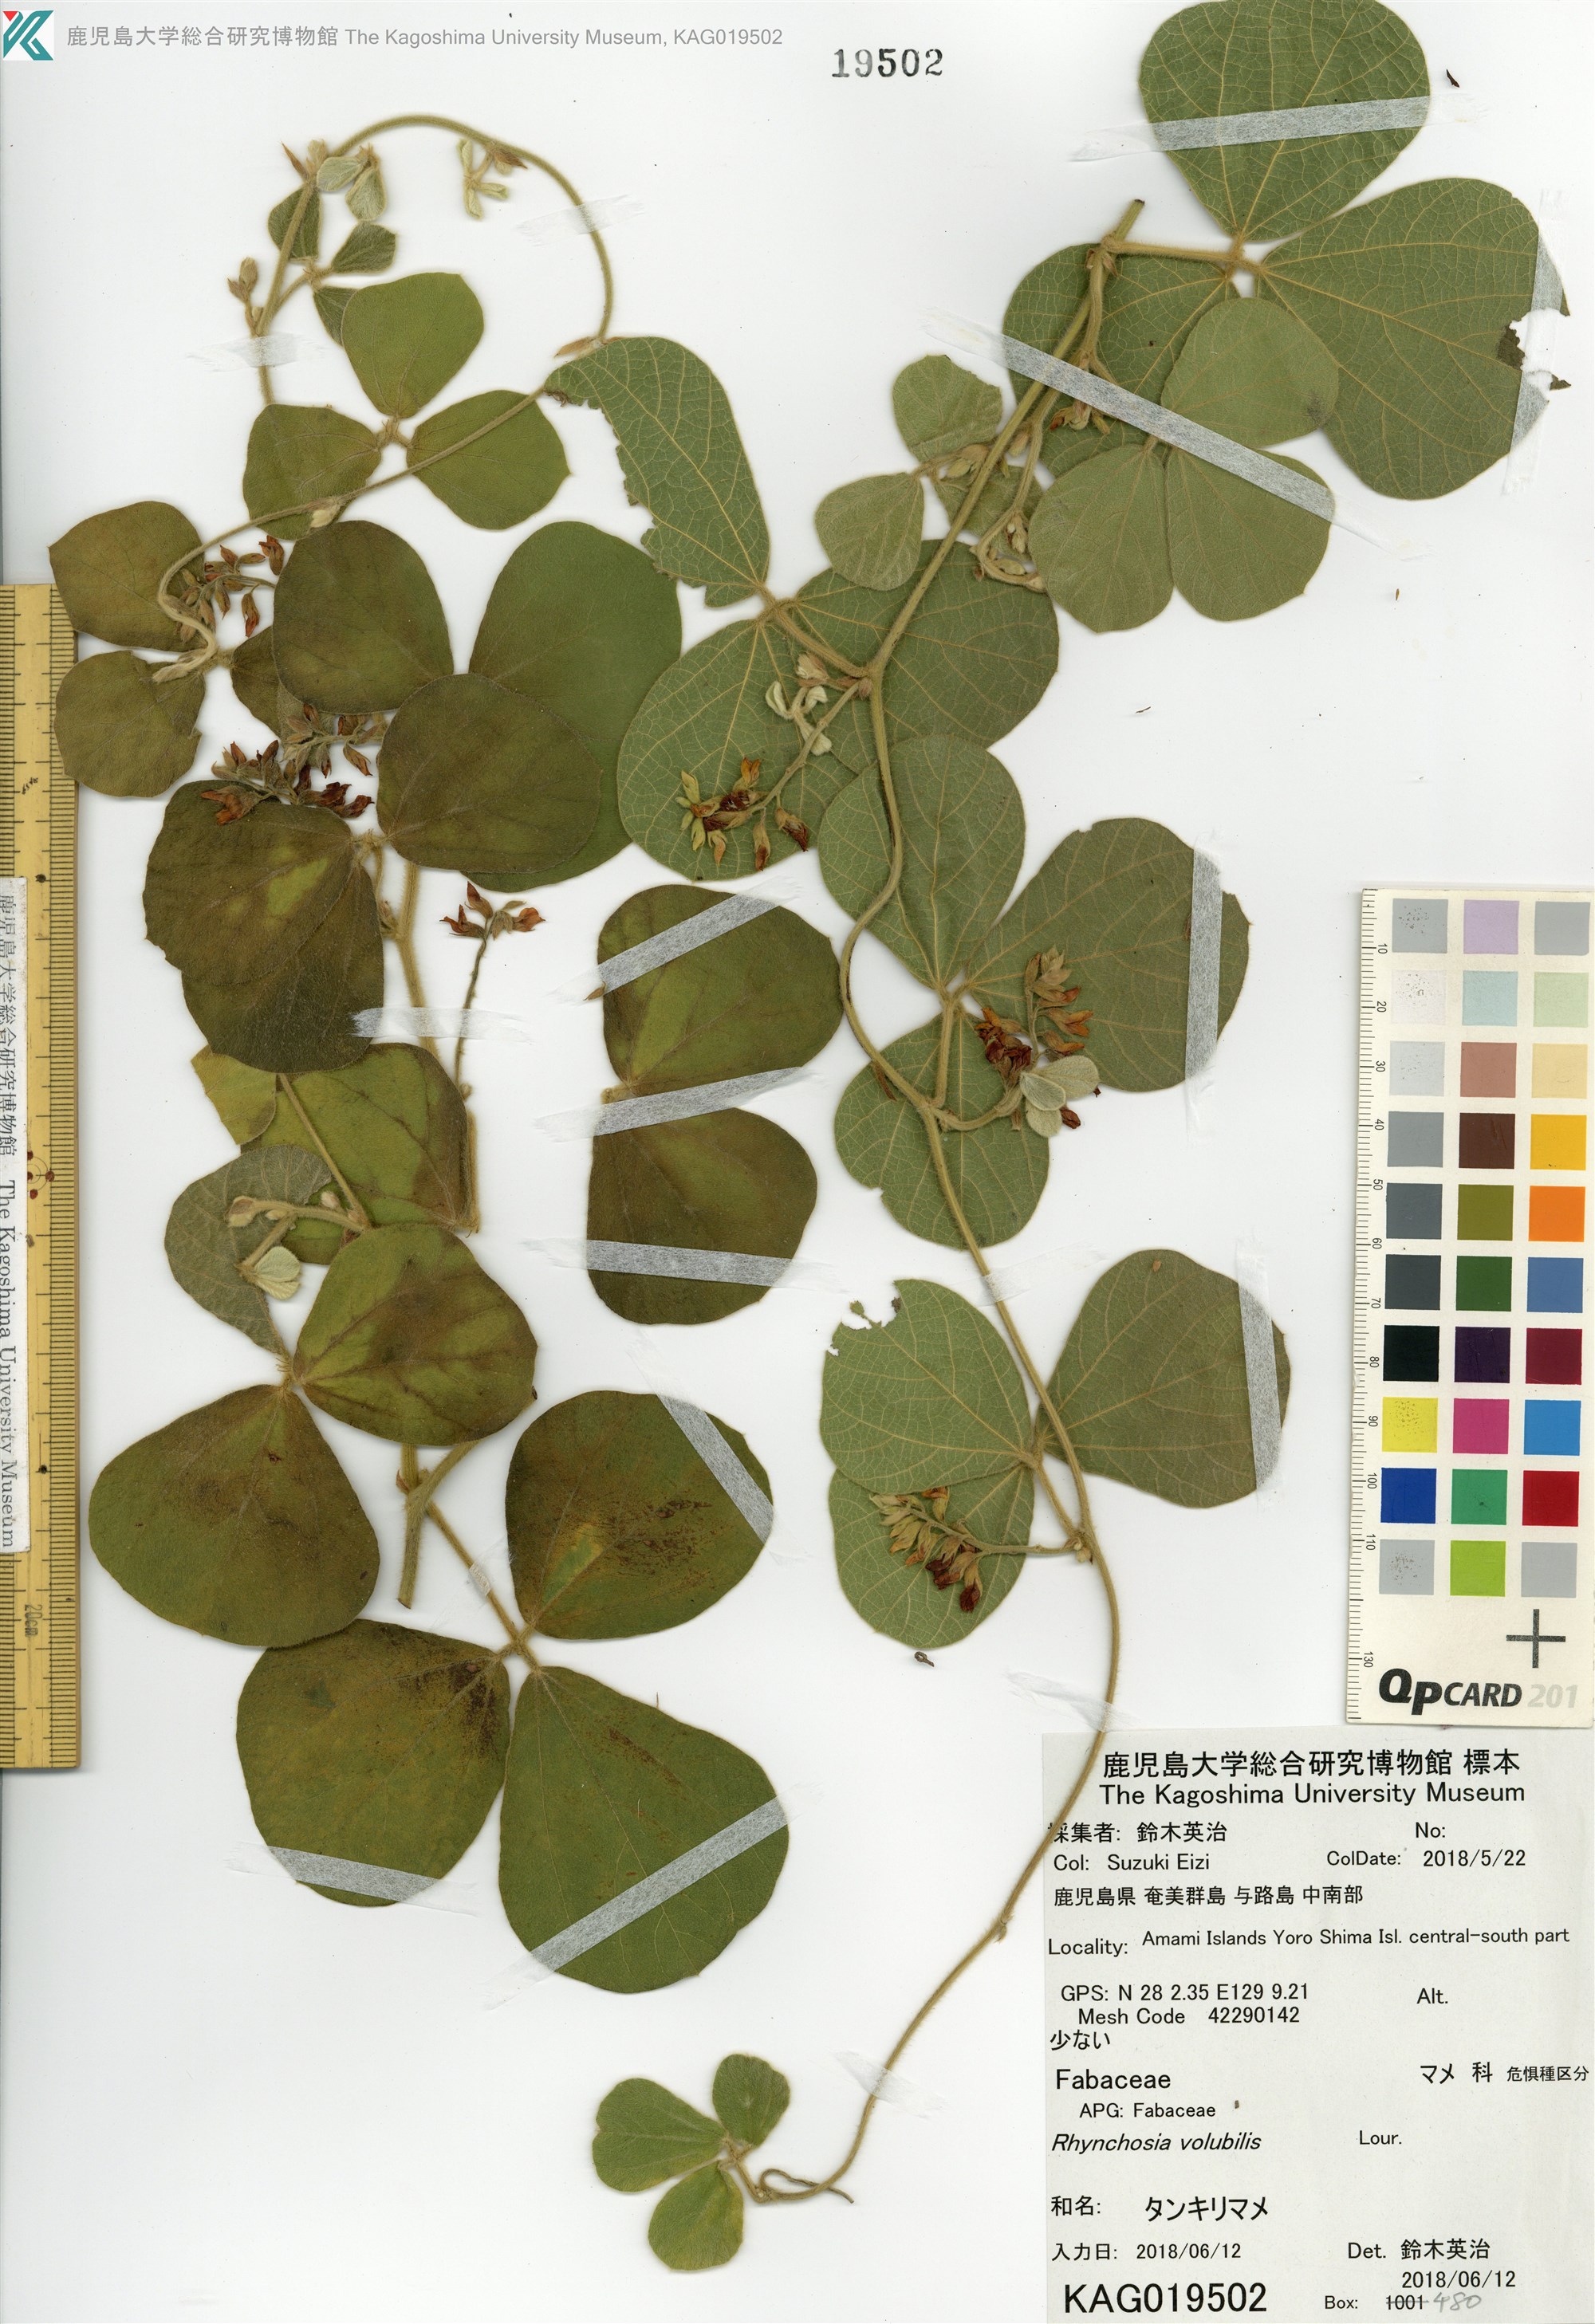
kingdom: Plantae
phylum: Tracheophyta
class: Magnoliopsida
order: Fabales
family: Fabaceae
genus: Rhynchosia
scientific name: Rhynchosia volubilis
